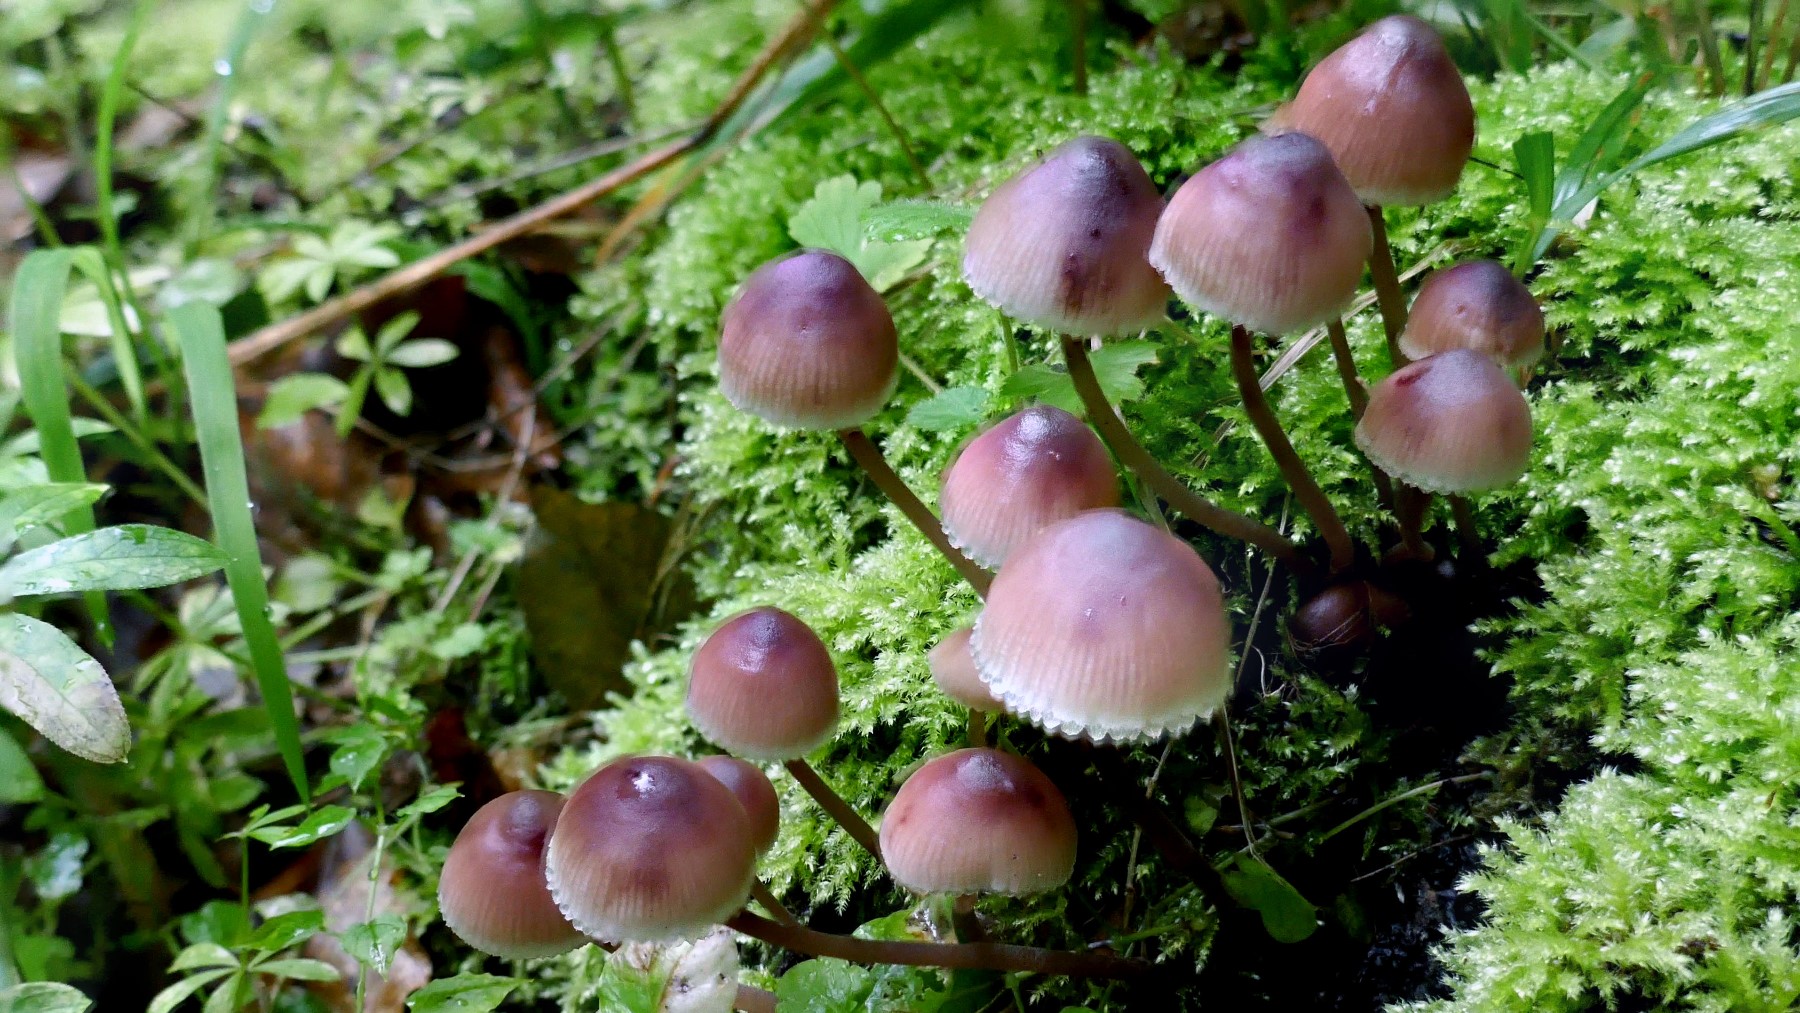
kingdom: Fungi
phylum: Basidiomycota
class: Agaricomycetes
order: Agaricales
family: Mycenaceae
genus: Mycena
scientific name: Mycena haematopus
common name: blødende huesvamp
